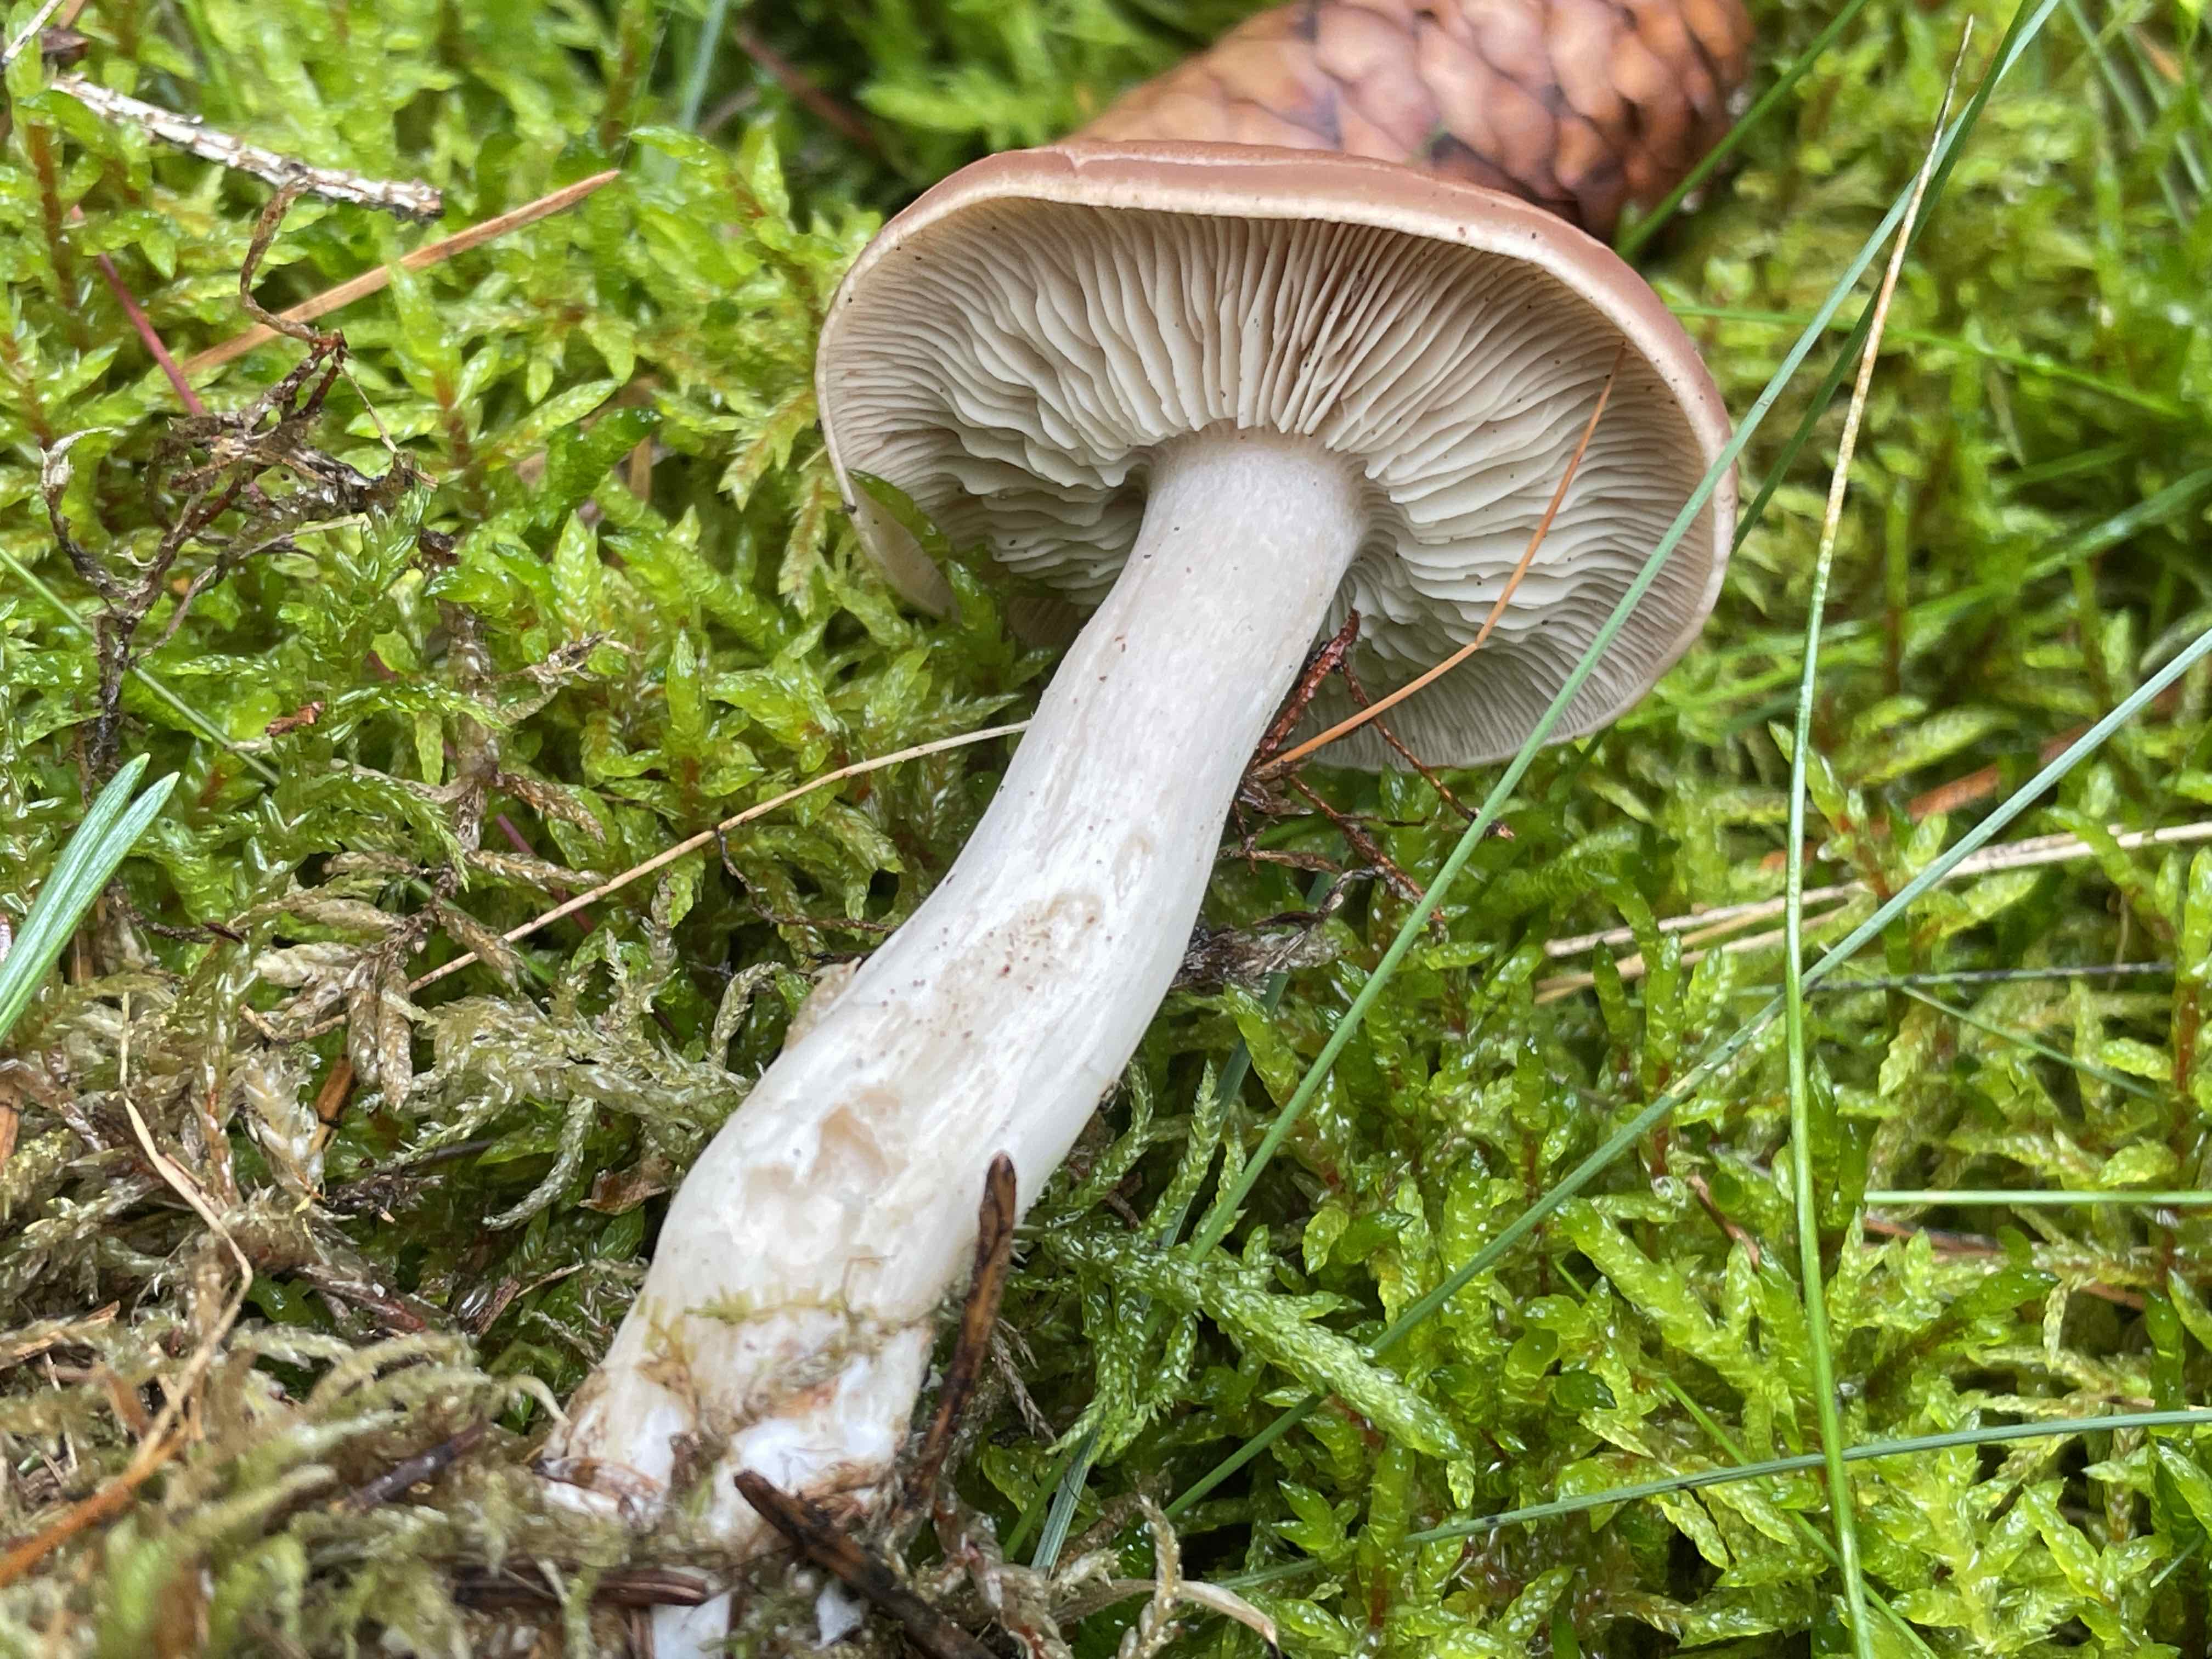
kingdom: Fungi
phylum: Basidiomycota
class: Agaricomycetes
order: Agaricales
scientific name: Agaricales
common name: champignonordenen
